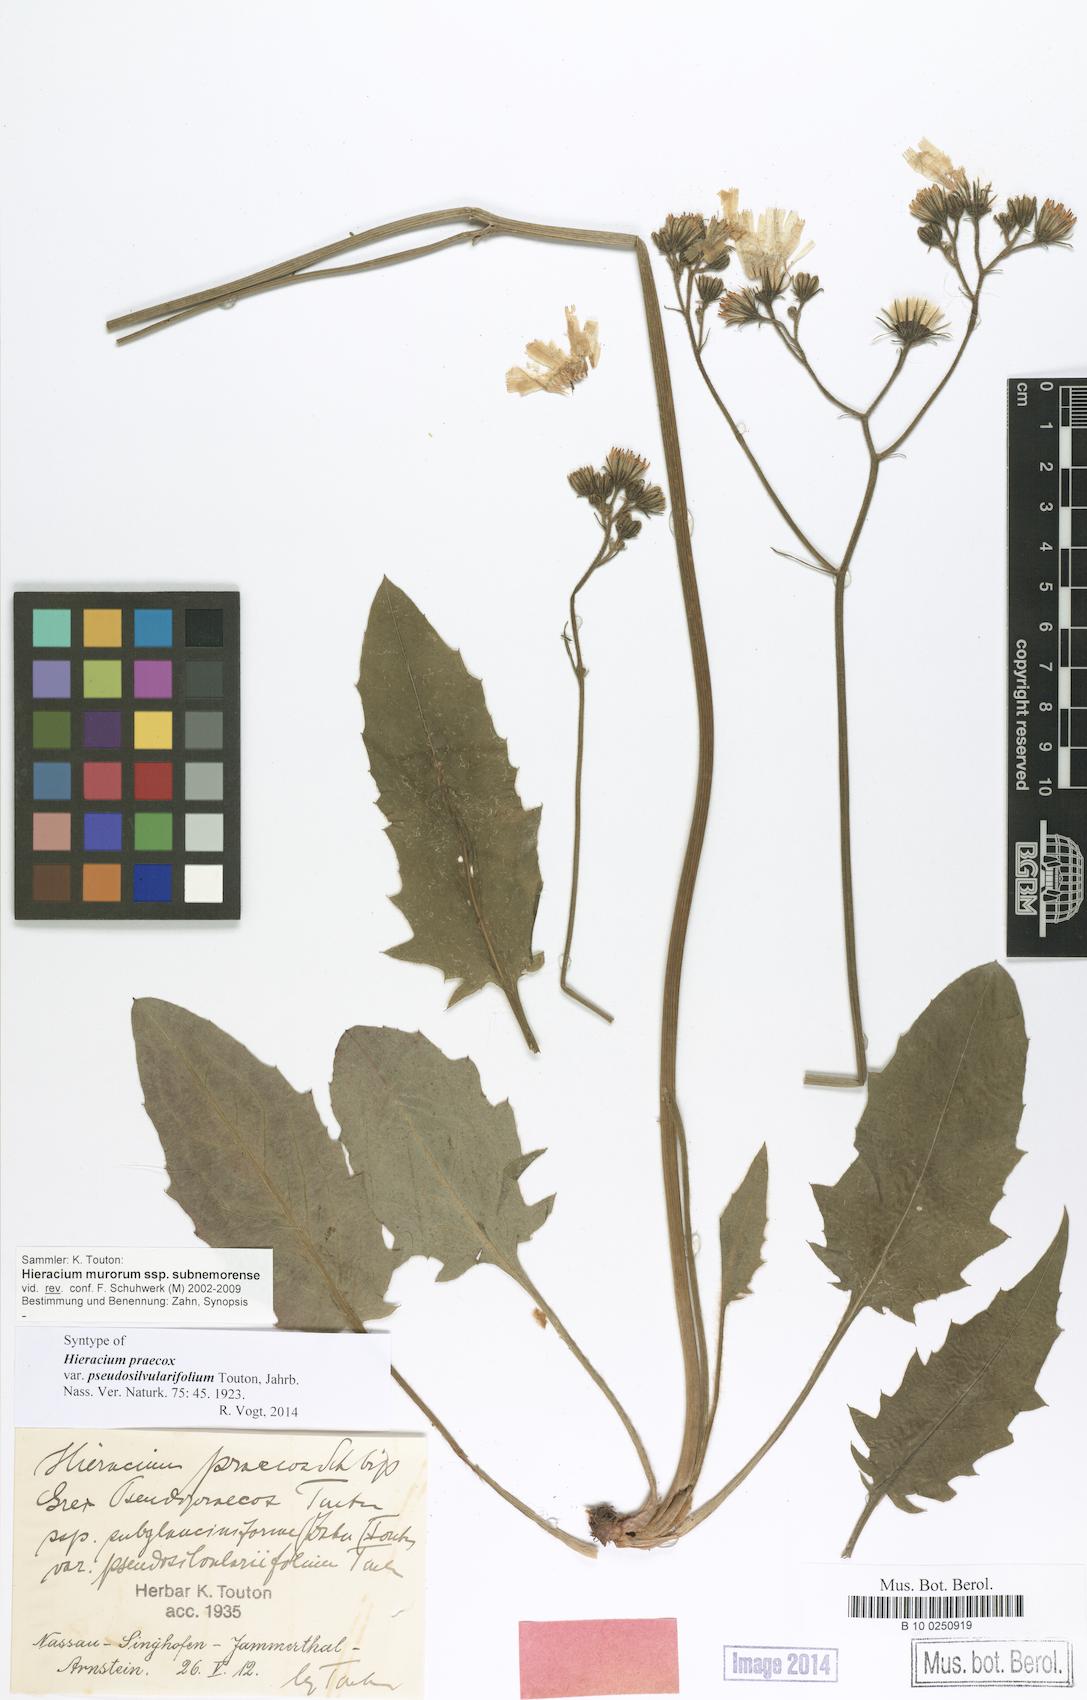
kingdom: Plantae
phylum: Tracheophyta
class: Magnoliopsida
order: Asterales
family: Asteraceae
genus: Hieracium
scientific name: Hieracium praecox
